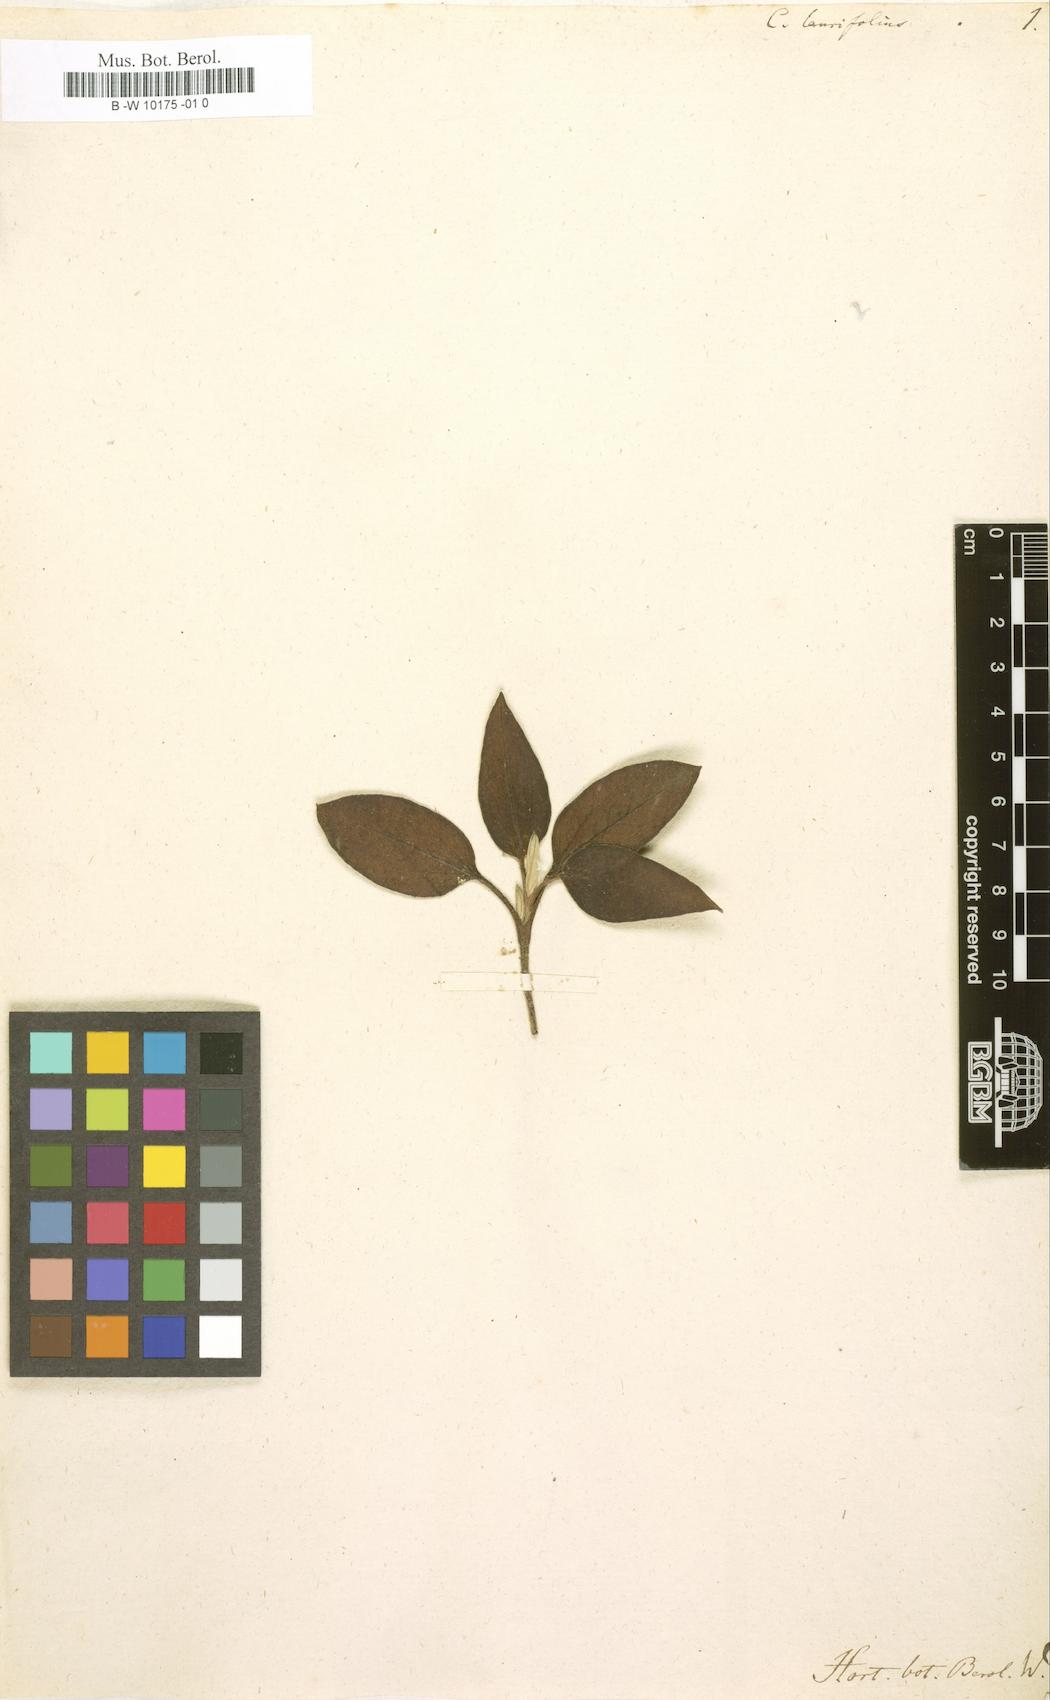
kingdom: Plantae
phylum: Tracheophyta
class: Magnoliopsida
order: Malvales
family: Cistaceae
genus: Cistus
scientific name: Cistus laurifolius
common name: Laurel-leaved cistus
